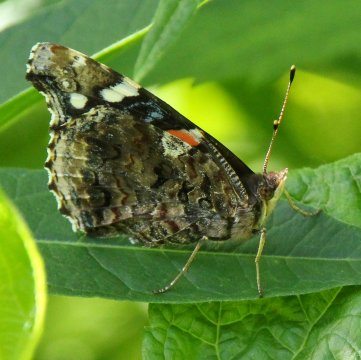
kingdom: Animalia
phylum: Arthropoda
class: Insecta
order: Lepidoptera
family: Nymphalidae
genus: Vanessa
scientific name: Vanessa atalanta
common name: Red Admiral
